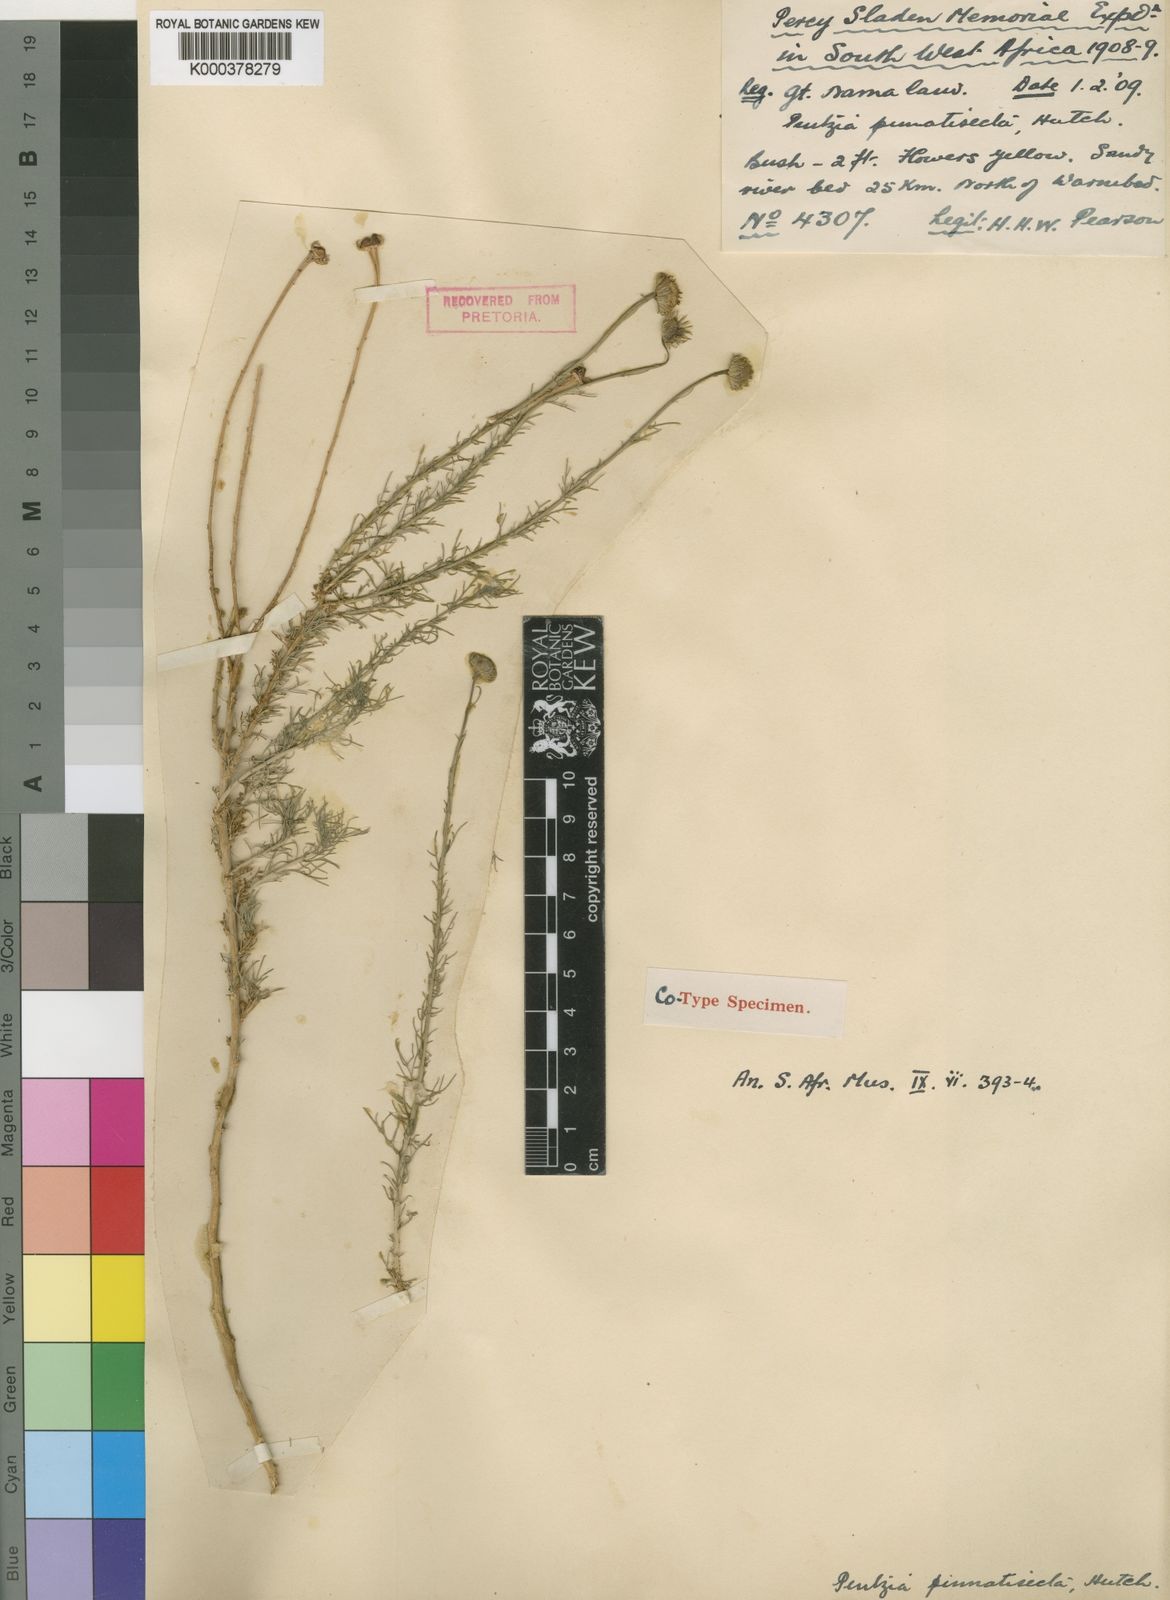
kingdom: Plantae
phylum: Tracheophyta
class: Magnoliopsida
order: Asterales
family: Asteraceae
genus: Pentzia
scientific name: Pentzia pinnatisecta
